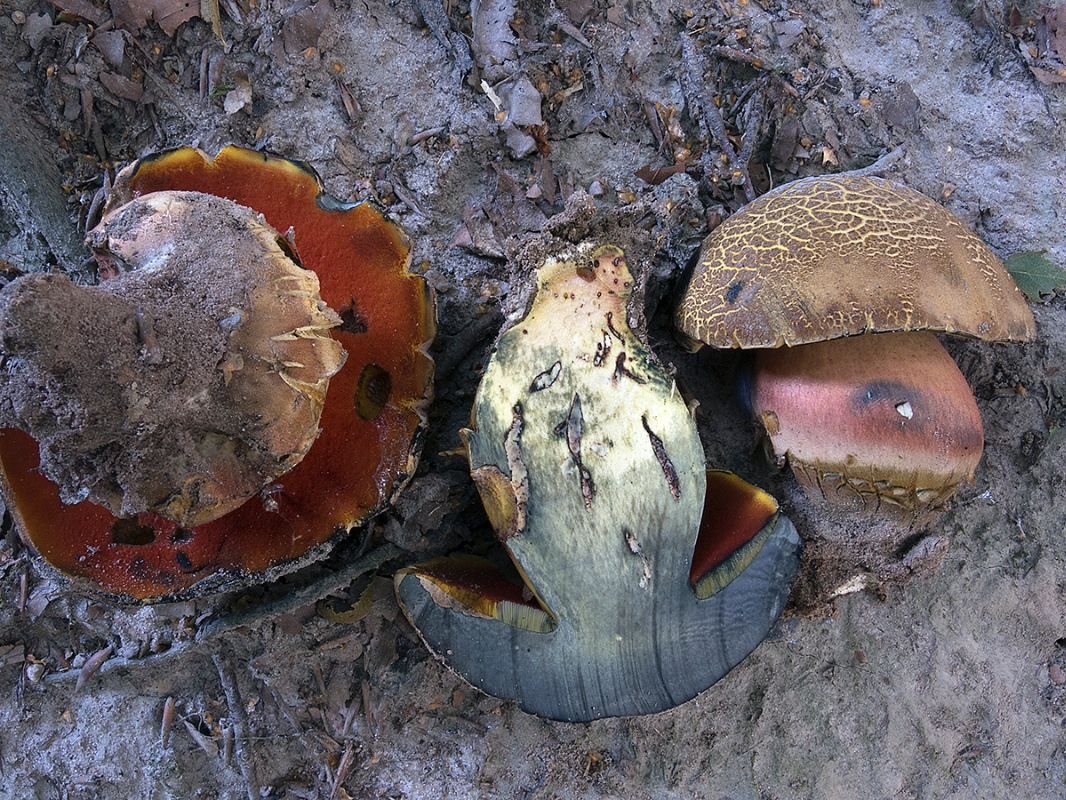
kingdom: Fungi
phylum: Basidiomycota
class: Agaricomycetes
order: Boletales
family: Boletaceae
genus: Neoboletus
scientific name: Neoboletus erythropus
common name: punktstokket indigorørhat
